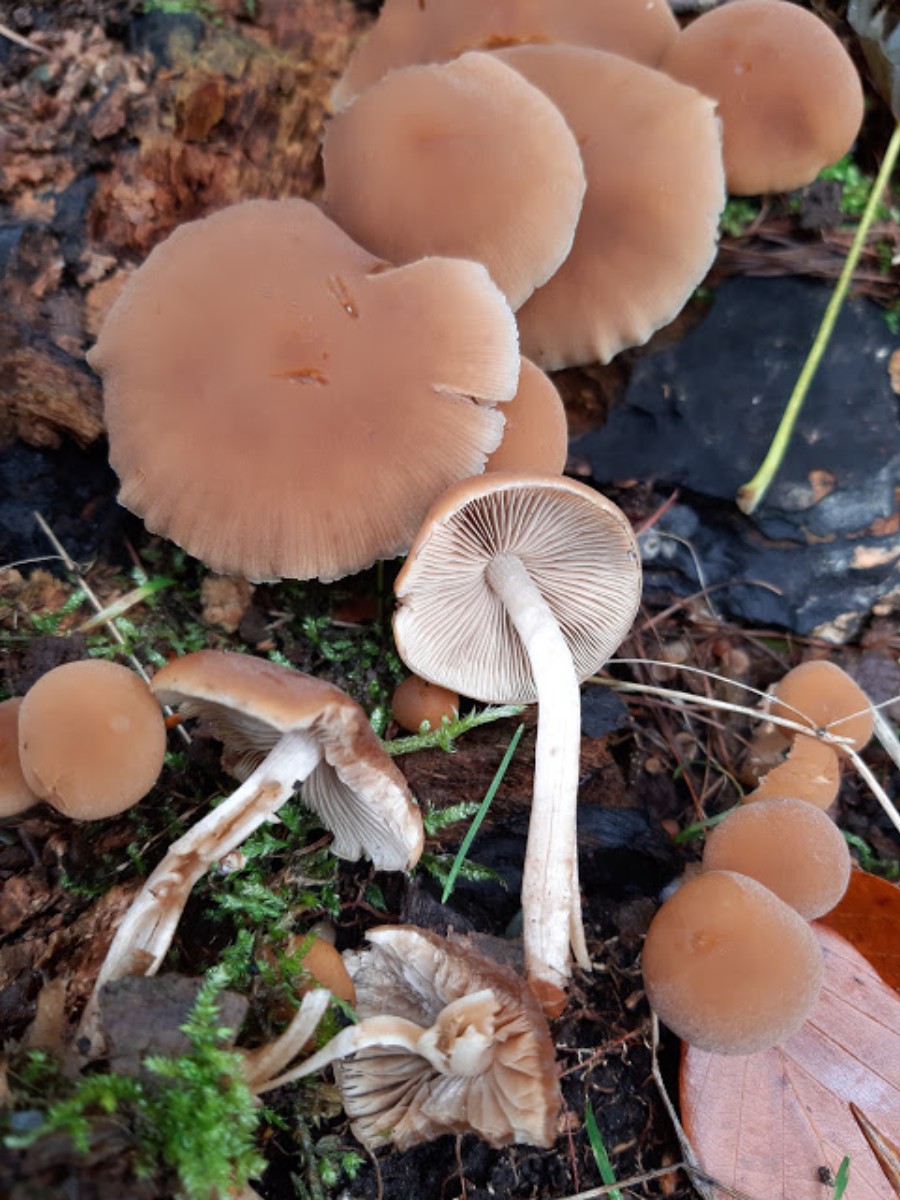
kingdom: Fungi
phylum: Basidiomycota
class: Agaricomycetes
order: Agaricales
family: Psathyrellaceae
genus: Psathyrella
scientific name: Psathyrella piluliformis
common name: lysstokket mørkhat
